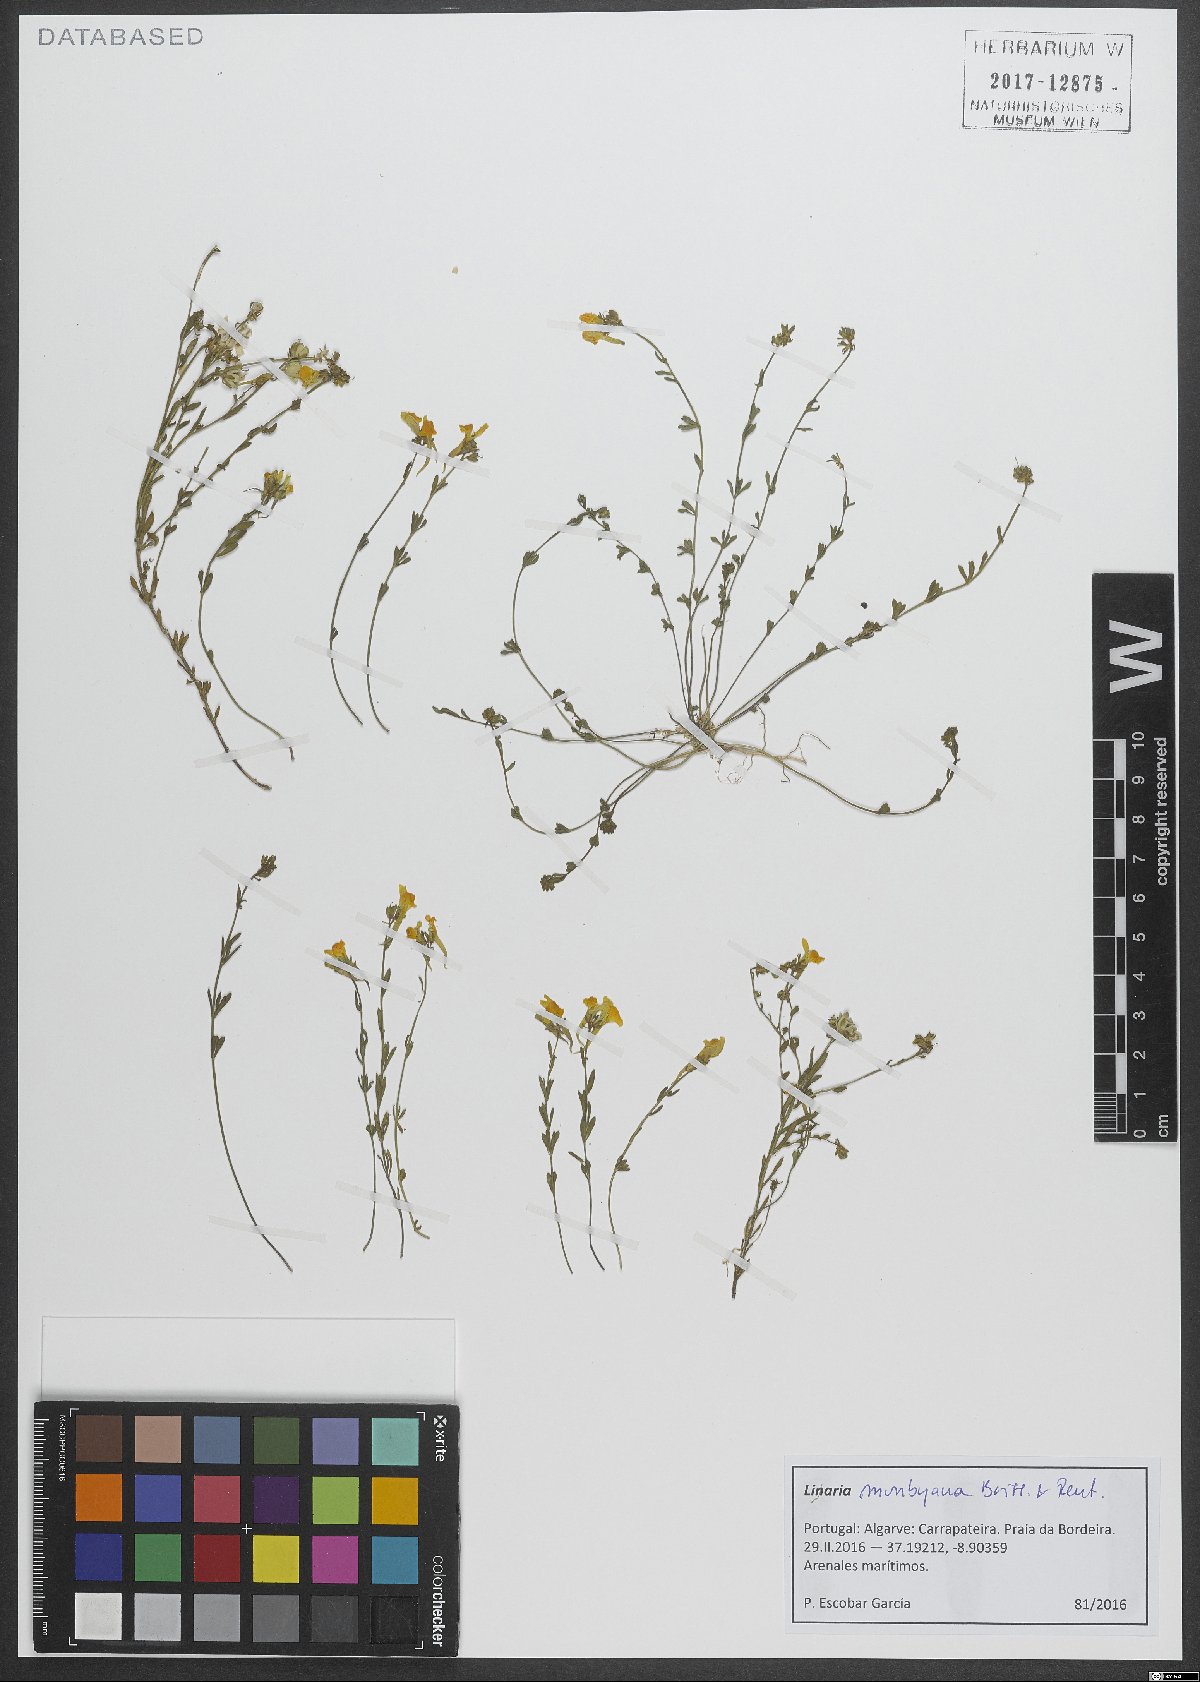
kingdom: Plantae
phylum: Tracheophyta
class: Magnoliopsida
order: Lamiales
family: Plantaginaceae
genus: Linaria
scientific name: Linaria munbyana
